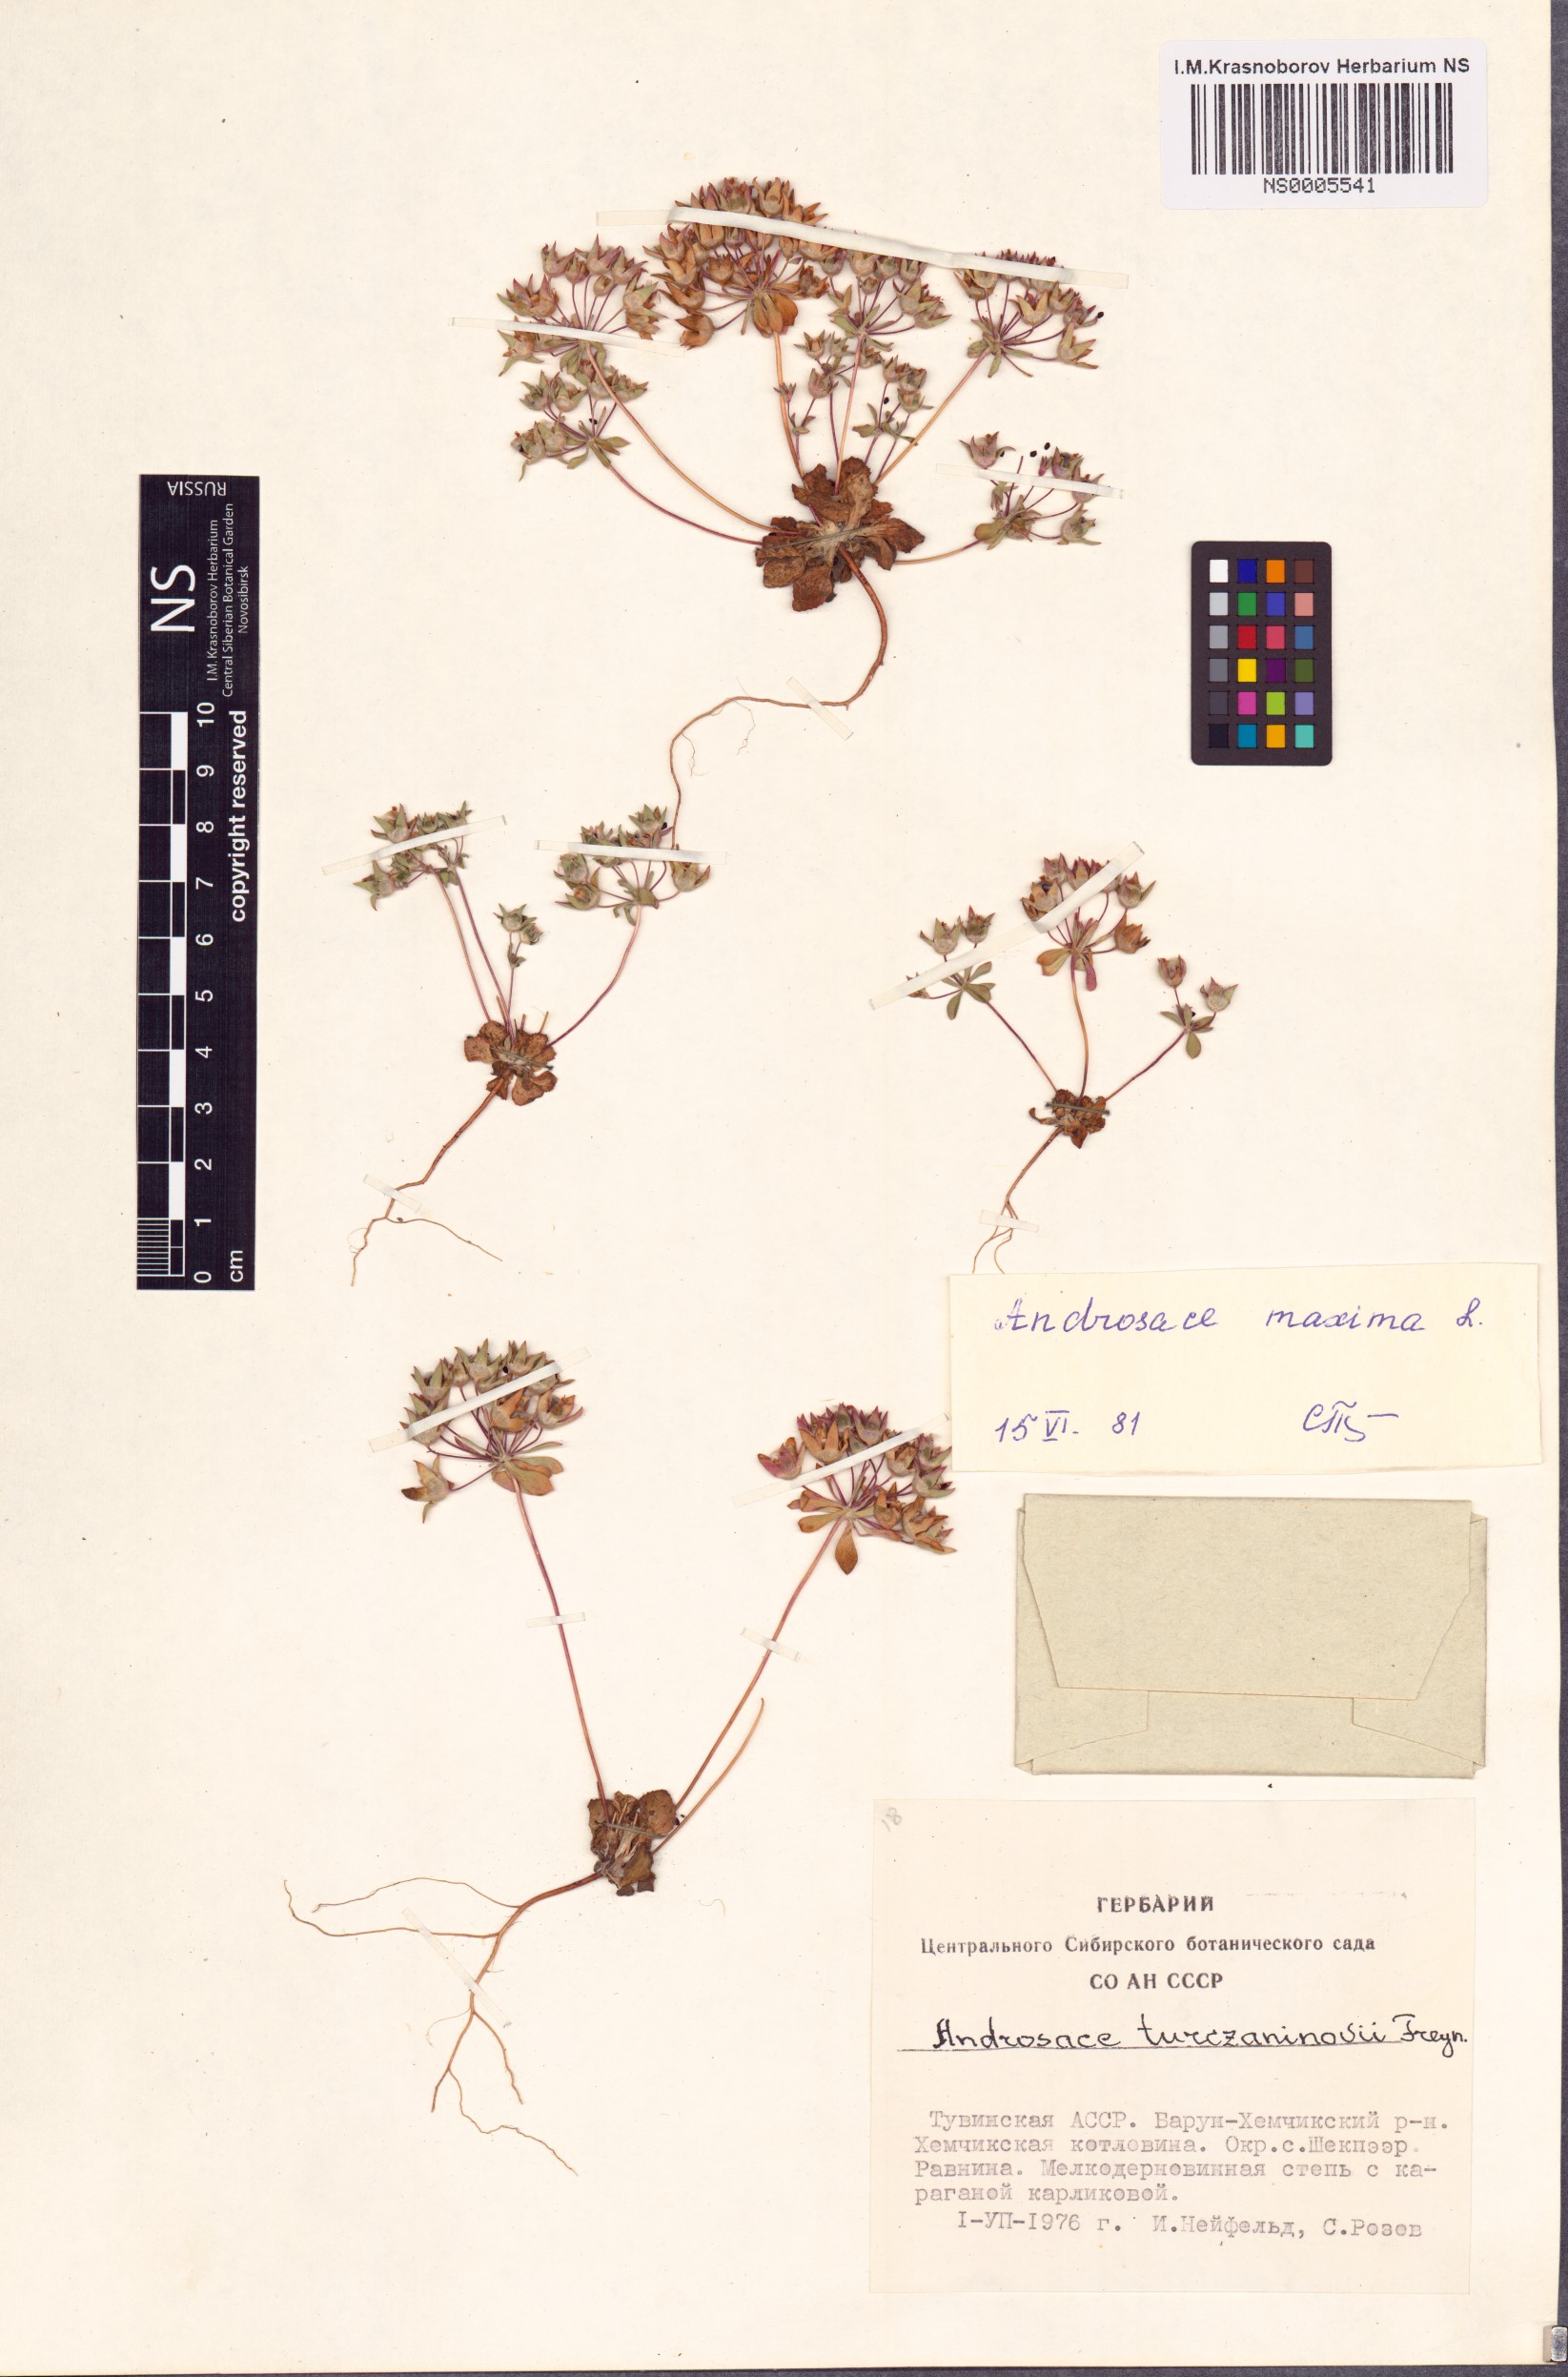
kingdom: Plantae
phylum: Tracheophyta
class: Magnoliopsida
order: Ericales
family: Primulaceae
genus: Androsace
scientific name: Androsace maxima
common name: Annual androsace
